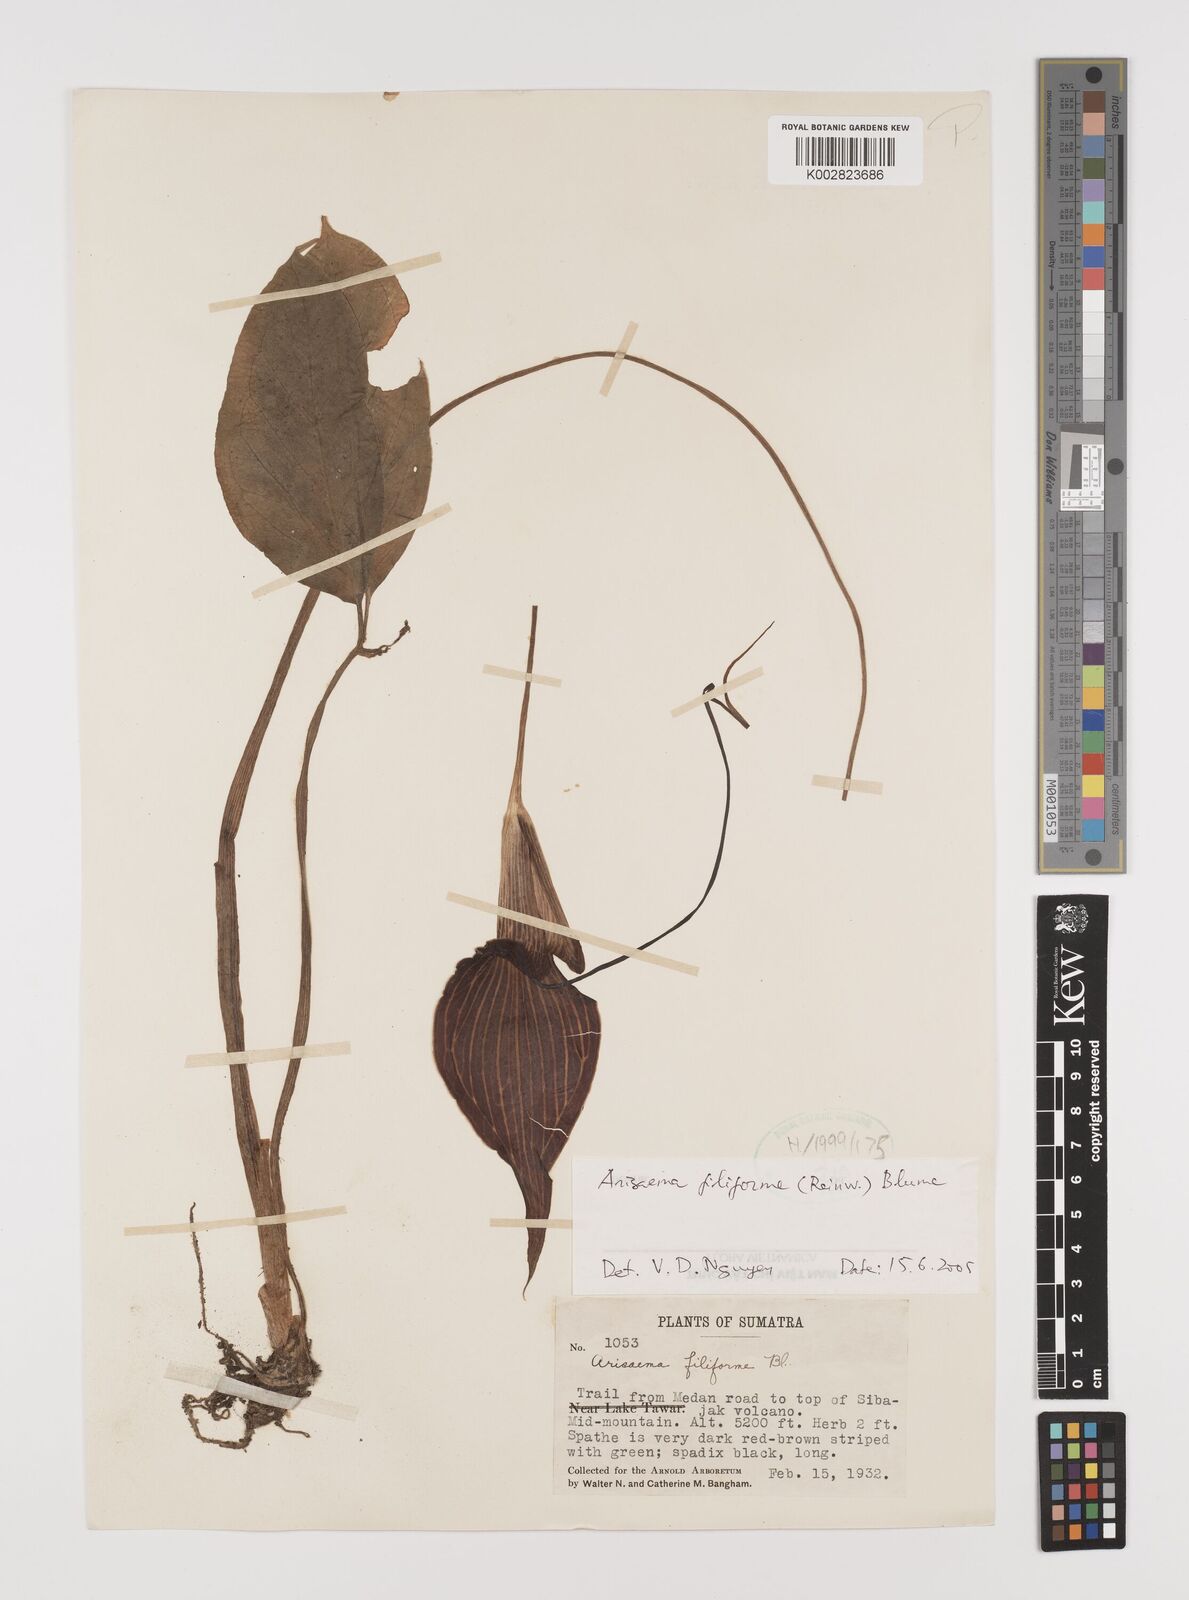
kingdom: Plantae
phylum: Tracheophyta
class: Liliopsida
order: Alismatales
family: Araceae
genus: Arisaema
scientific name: Arisaema filiforme
